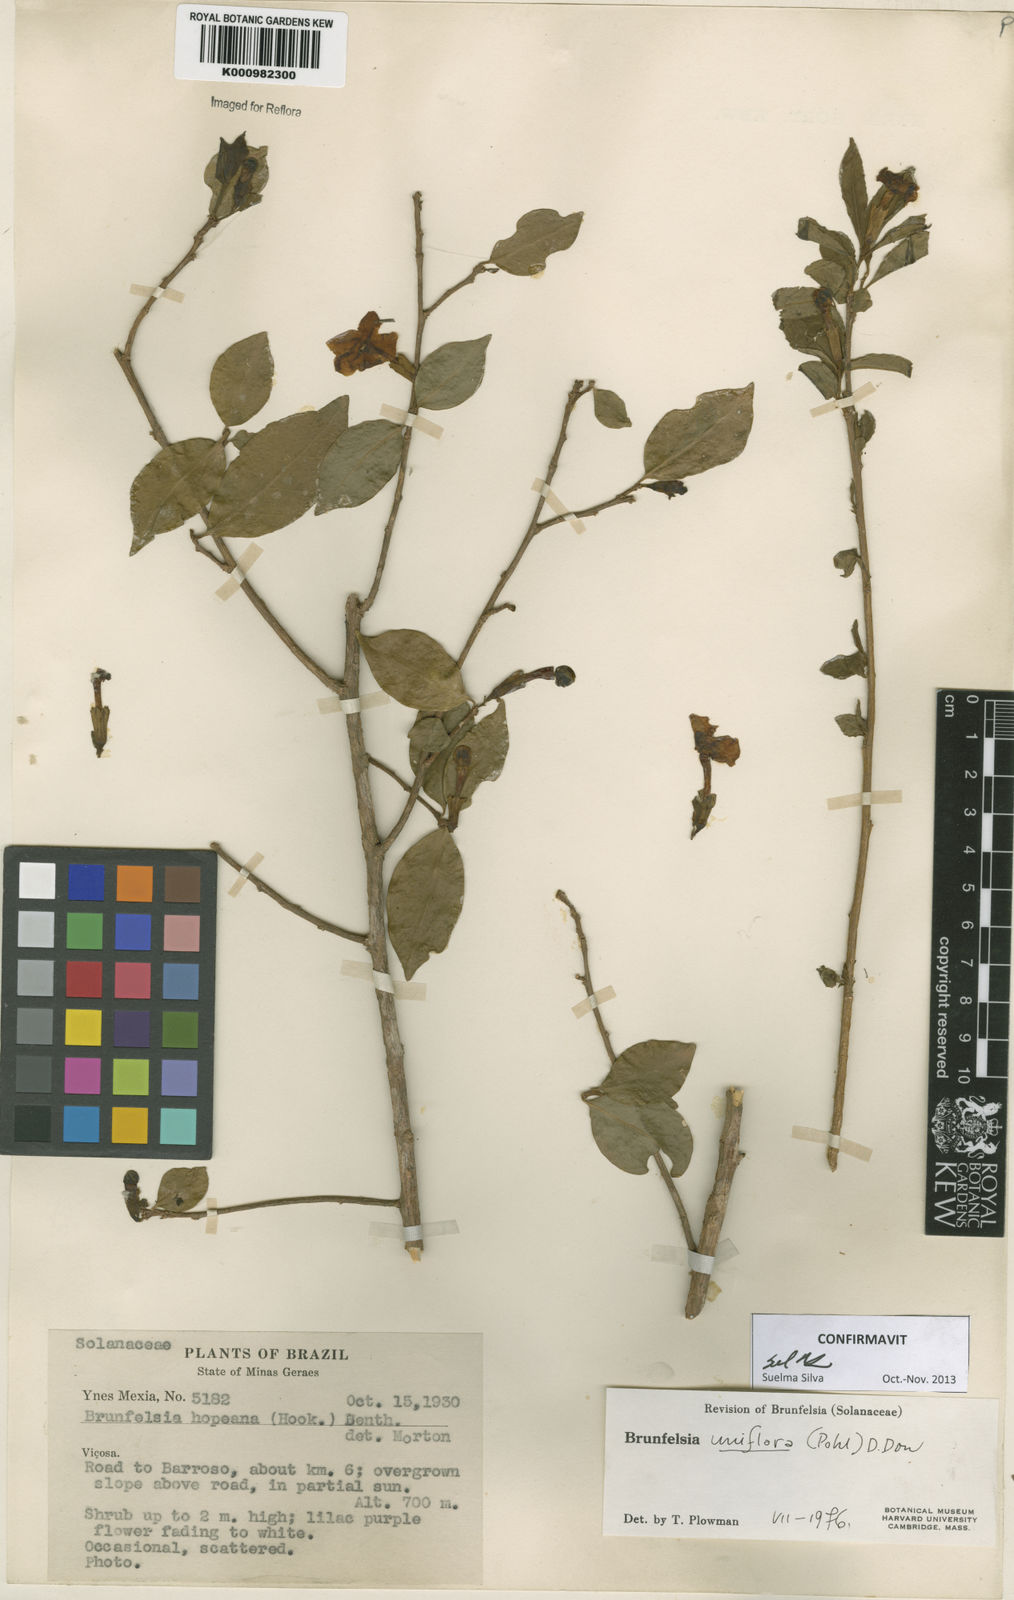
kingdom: Plantae
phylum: Tracheophyta
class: Magnoliopsida
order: Solanales
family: Solanaceae
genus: Brunfelsia
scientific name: Brunfelsia uniflora
